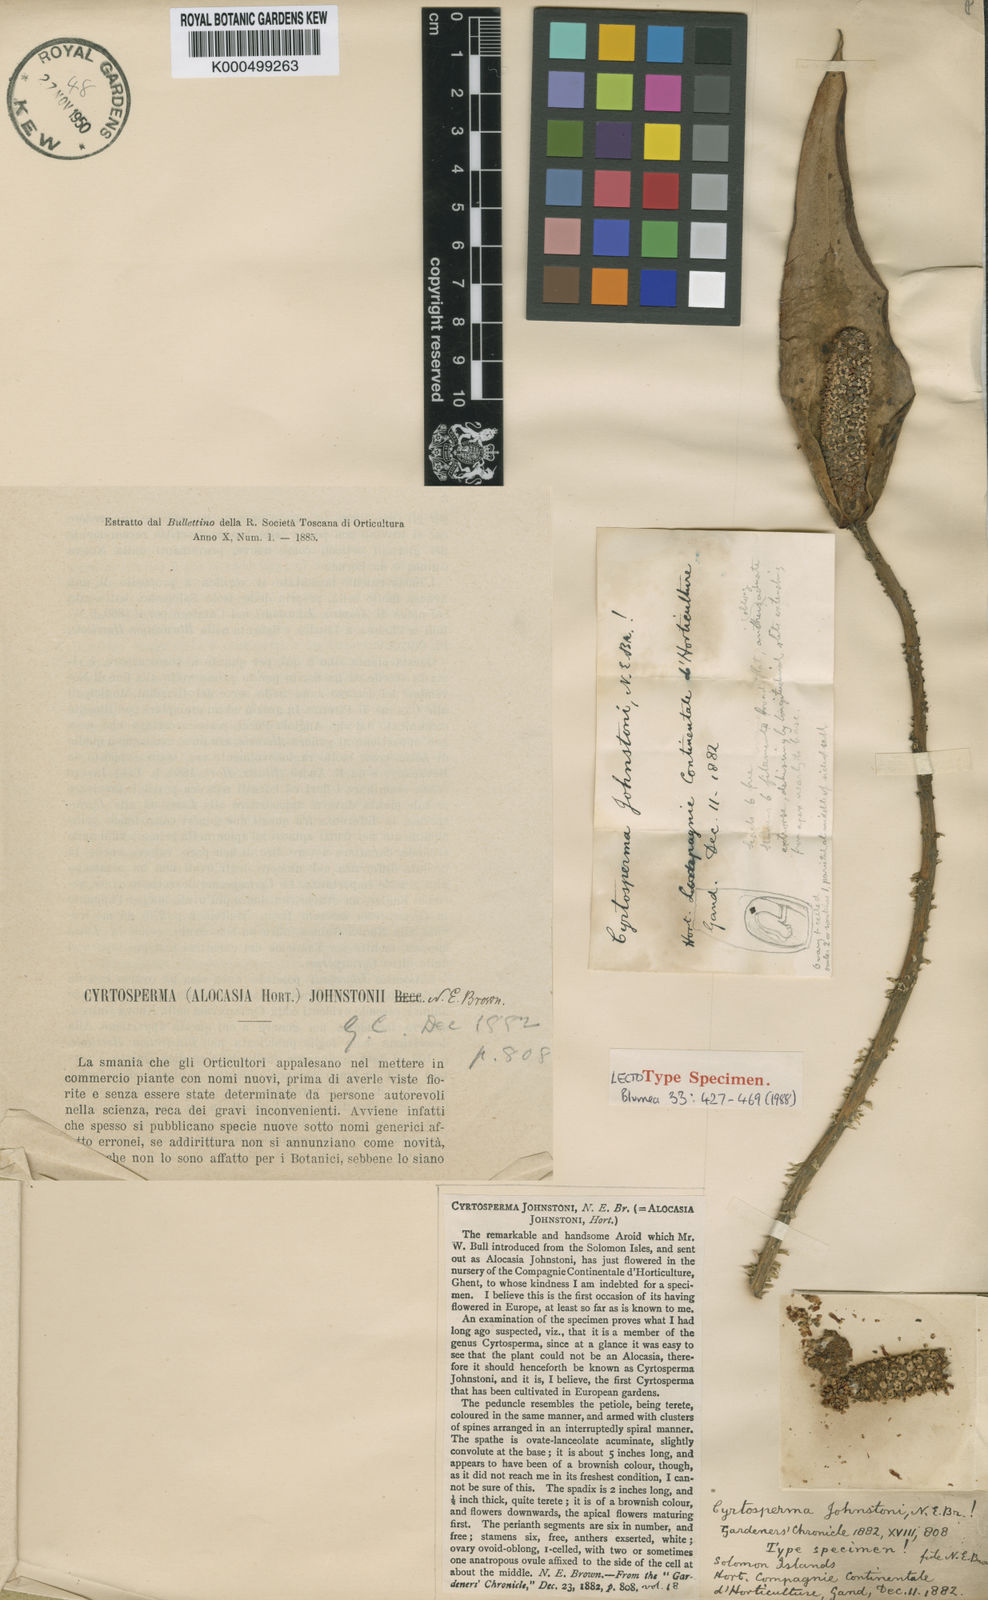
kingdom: Plantae
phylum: Tracheophyta
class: Liliopsida
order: Alismatales
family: Araceae
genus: Cyrtosperma
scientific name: Cyrtosperma johnstonii
